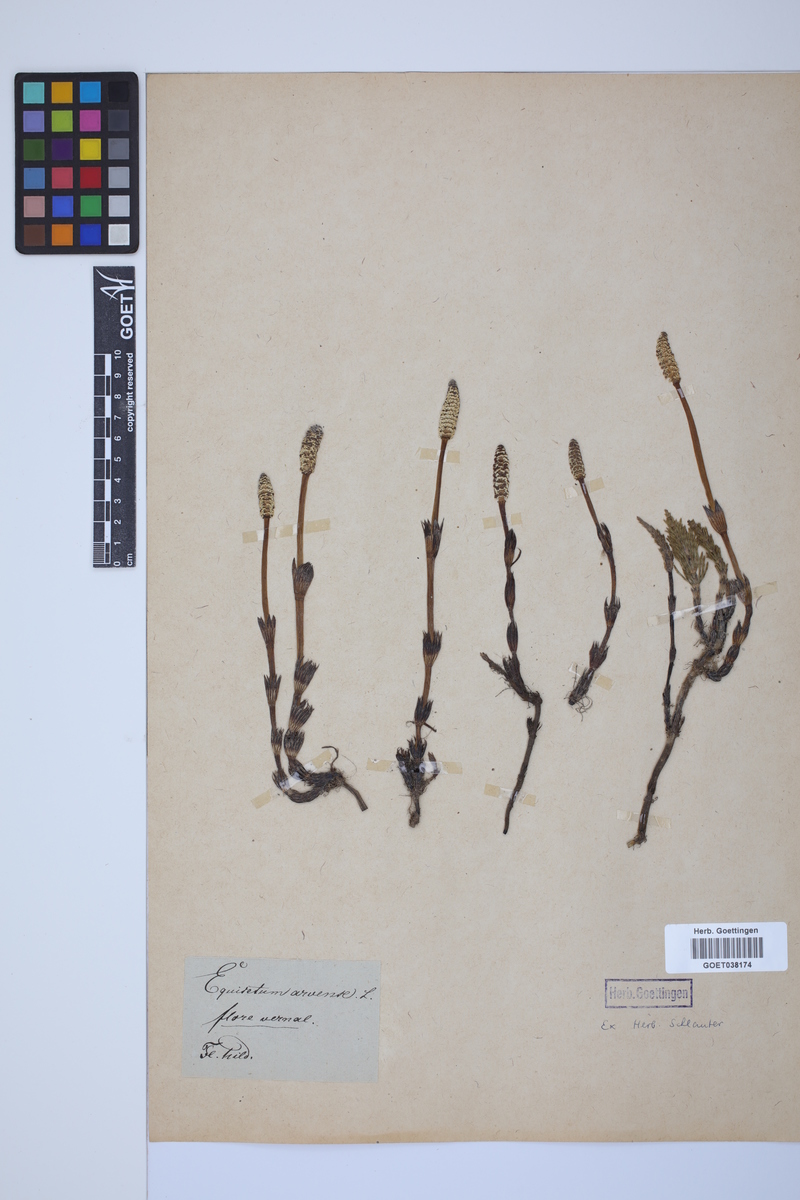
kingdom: Plantae
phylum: Tracheophyta
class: Polypodiopsida
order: Equisetales
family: Equisetaceae
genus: Equisetum
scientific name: Equisetum arvense
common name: Field horsetail
